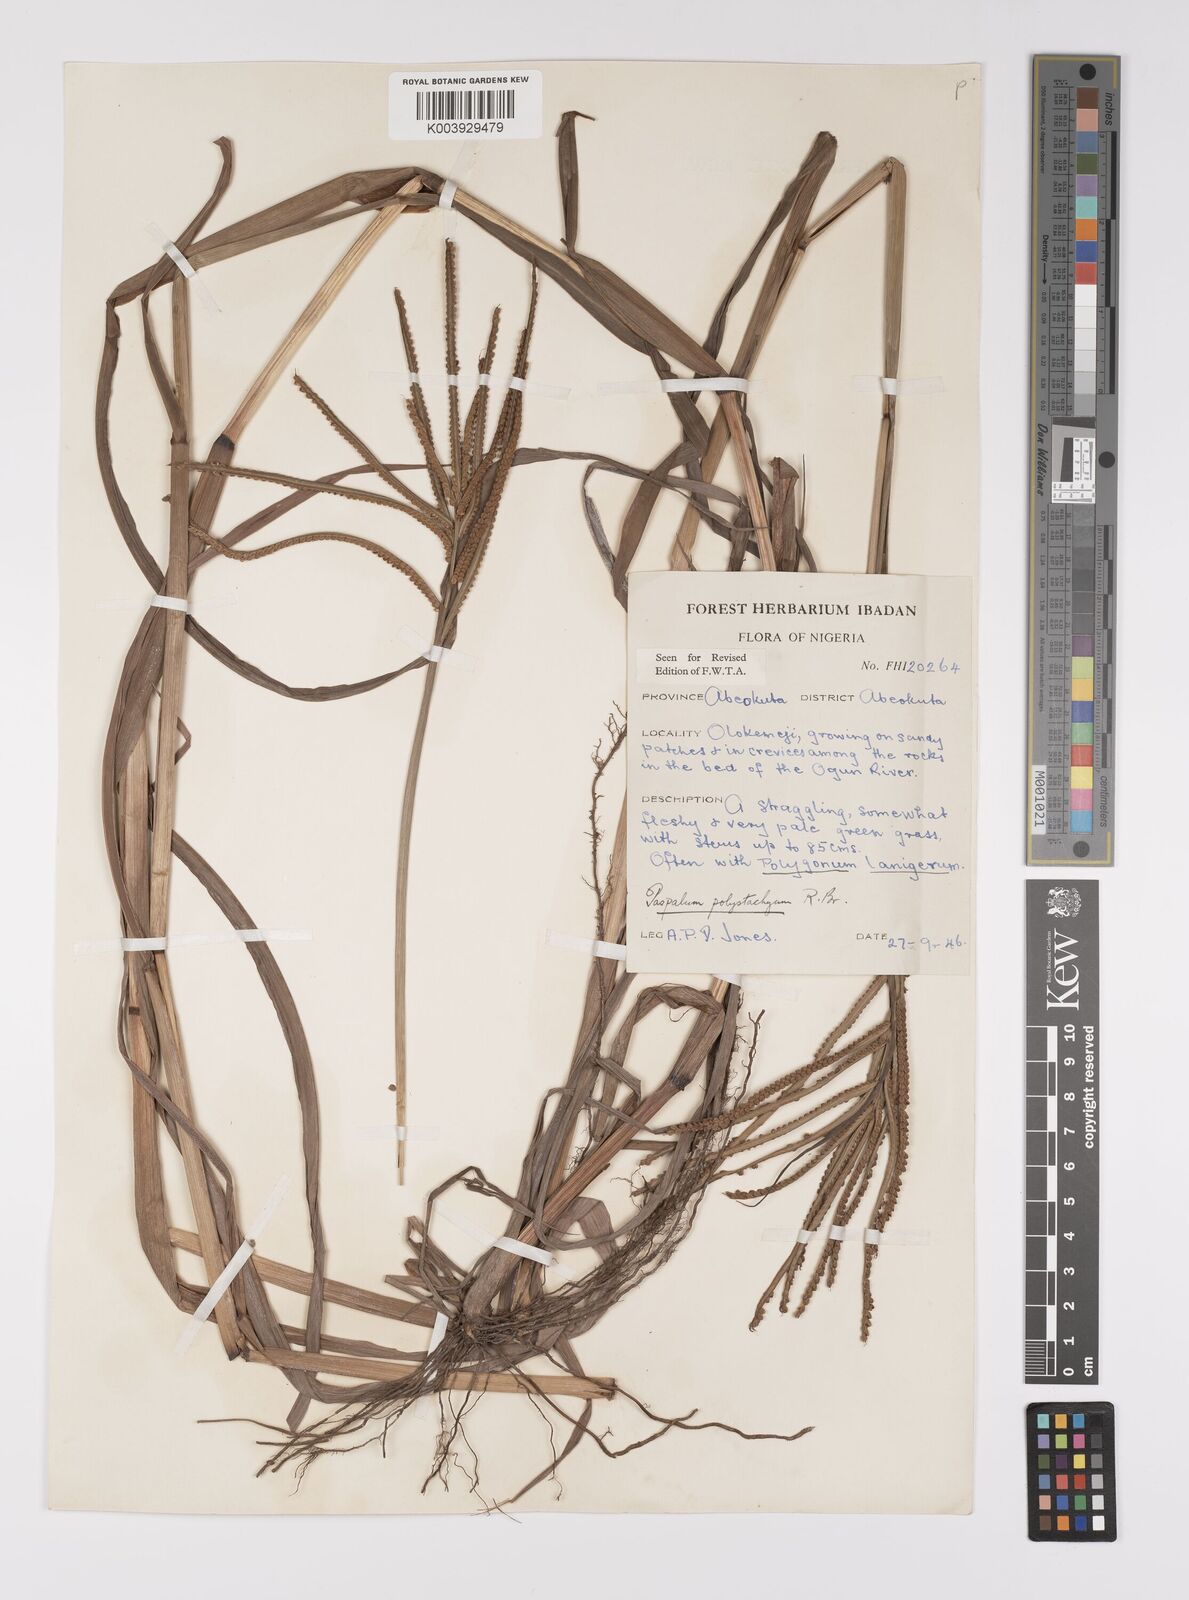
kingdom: Plantae
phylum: Tracheophyta
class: Liliopsida
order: Poales
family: Poaceae
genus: Paspalum
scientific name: Paspalum scrobiculatum
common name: Kodo millet
